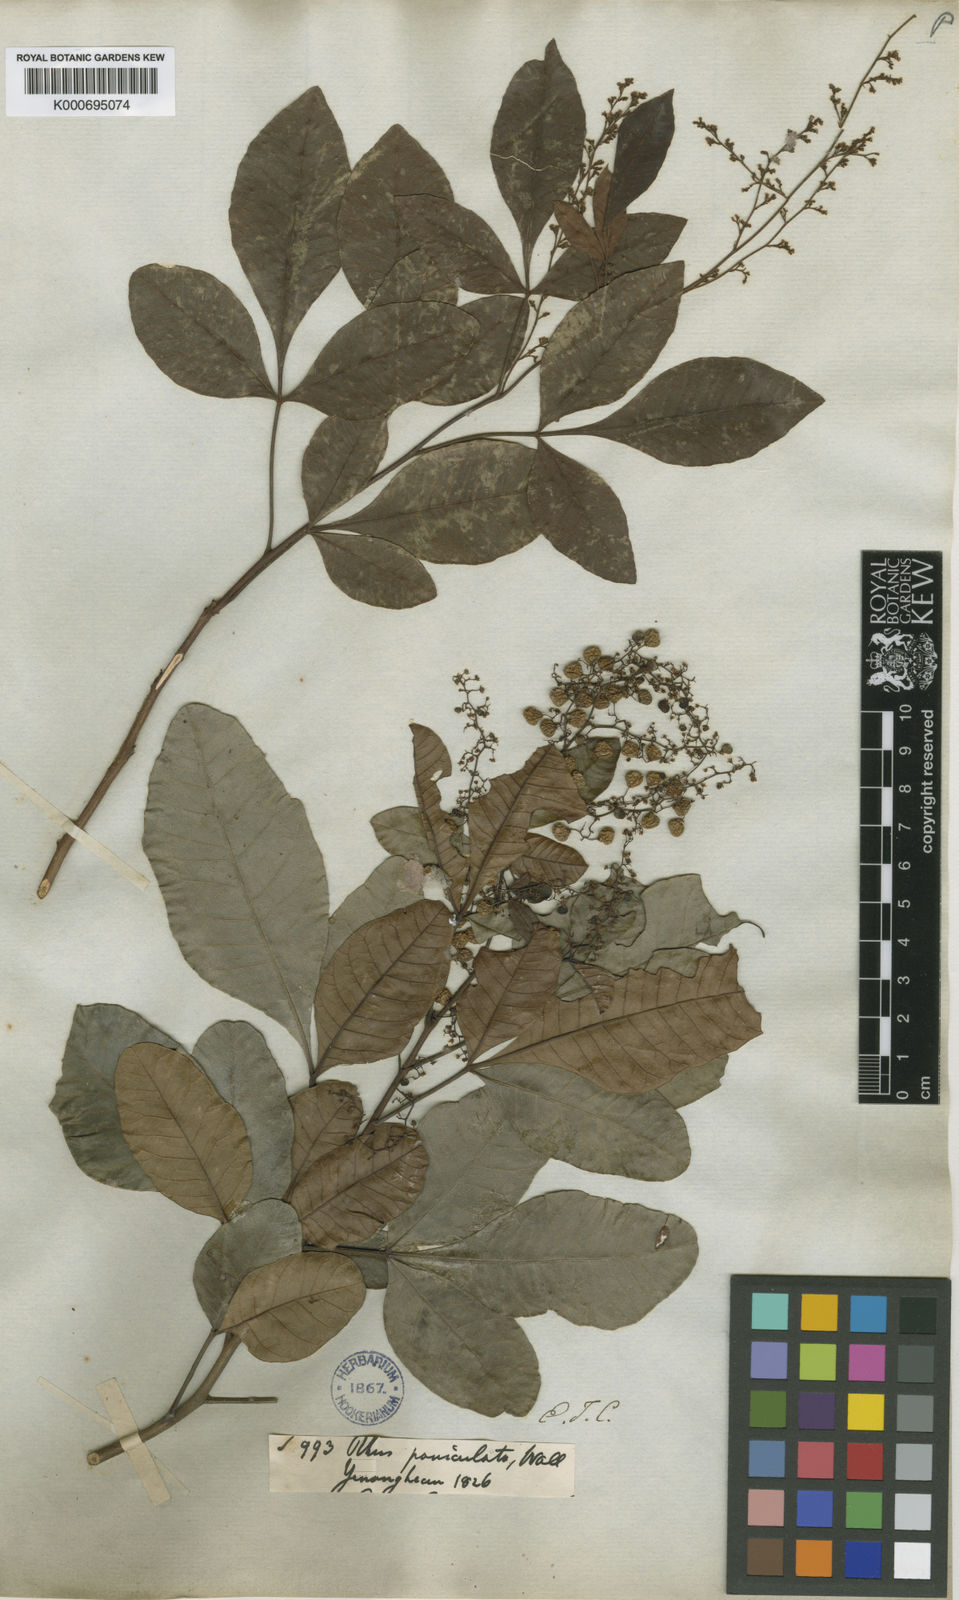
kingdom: Plantae
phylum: Tracheophyta
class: Magnoliopsida
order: Sapindales
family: Anacardiaceae
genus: Rhus
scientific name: Rhus
